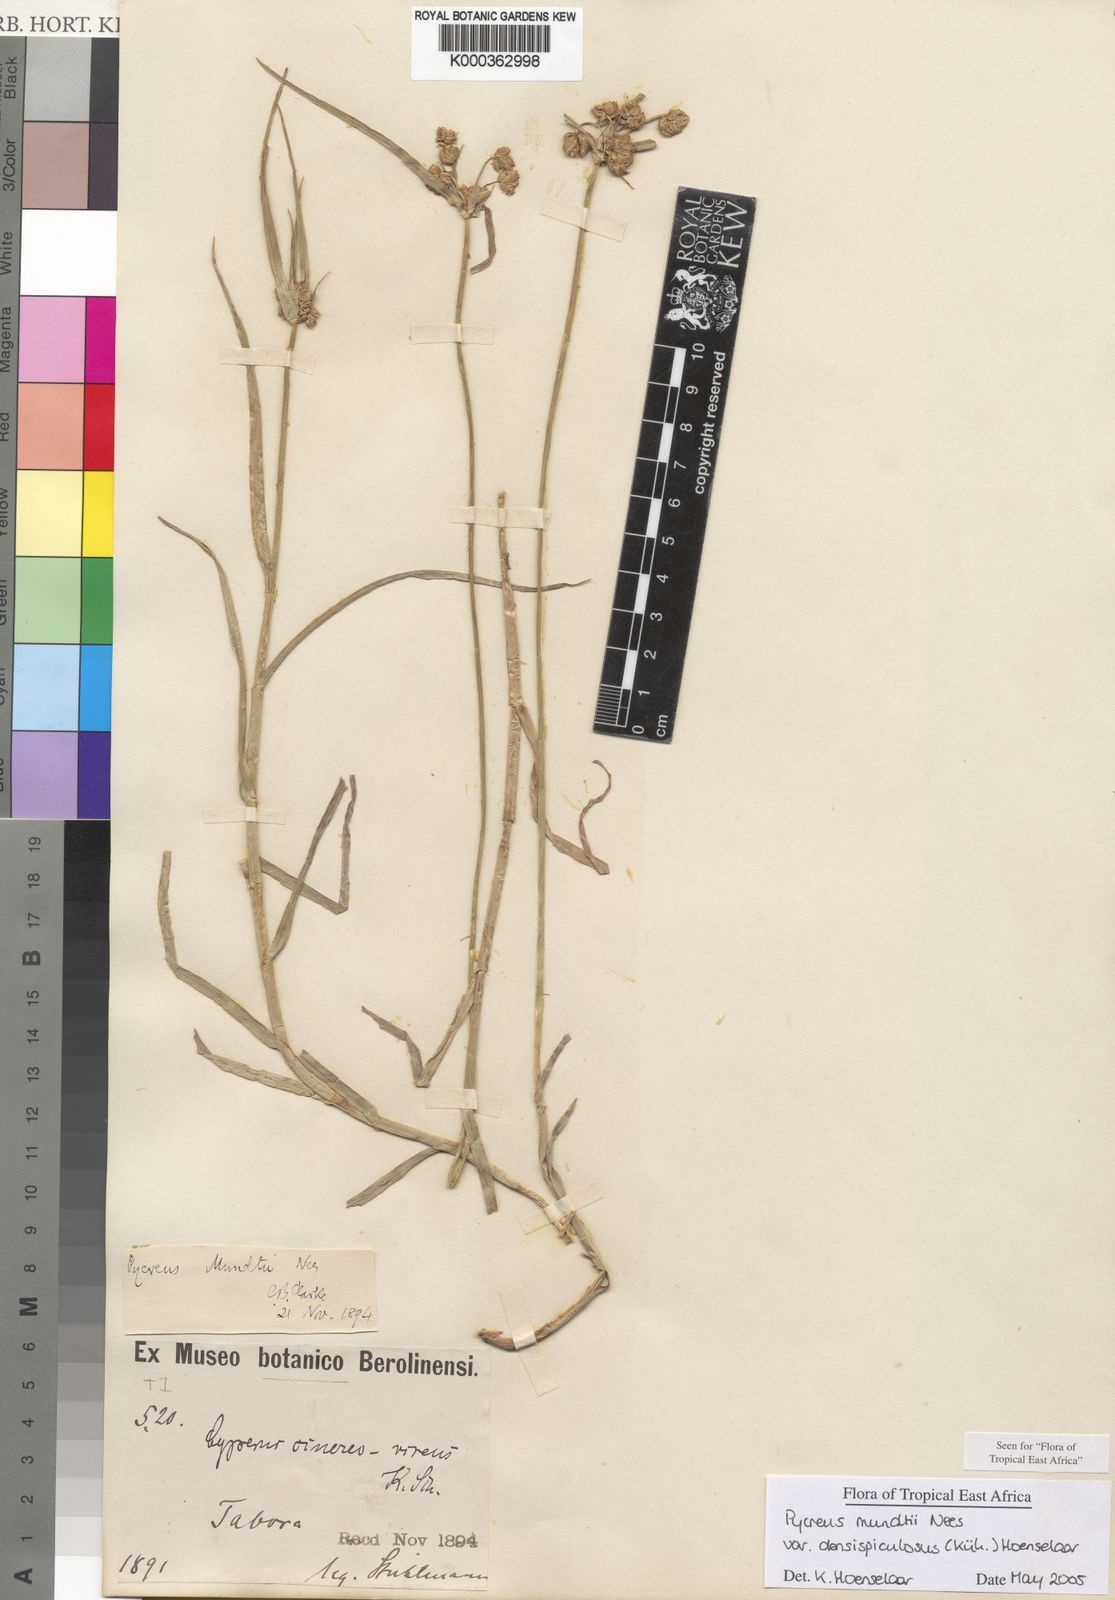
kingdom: Plantae
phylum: Tracheophyta
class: Liliopsida
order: Poales
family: Cyperaceae
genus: Cyperus
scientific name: Cyperus
